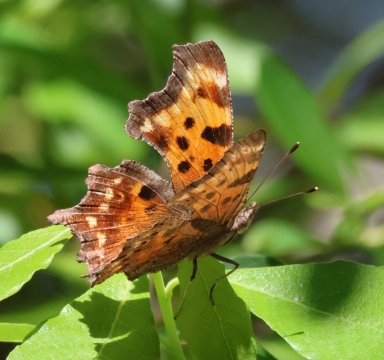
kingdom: Animalia
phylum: Arthropoda
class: Insecta
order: Lepidoptera
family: Nymphalidae
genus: Polygonia
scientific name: Polygonia gracilis
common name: Hoary Comma
